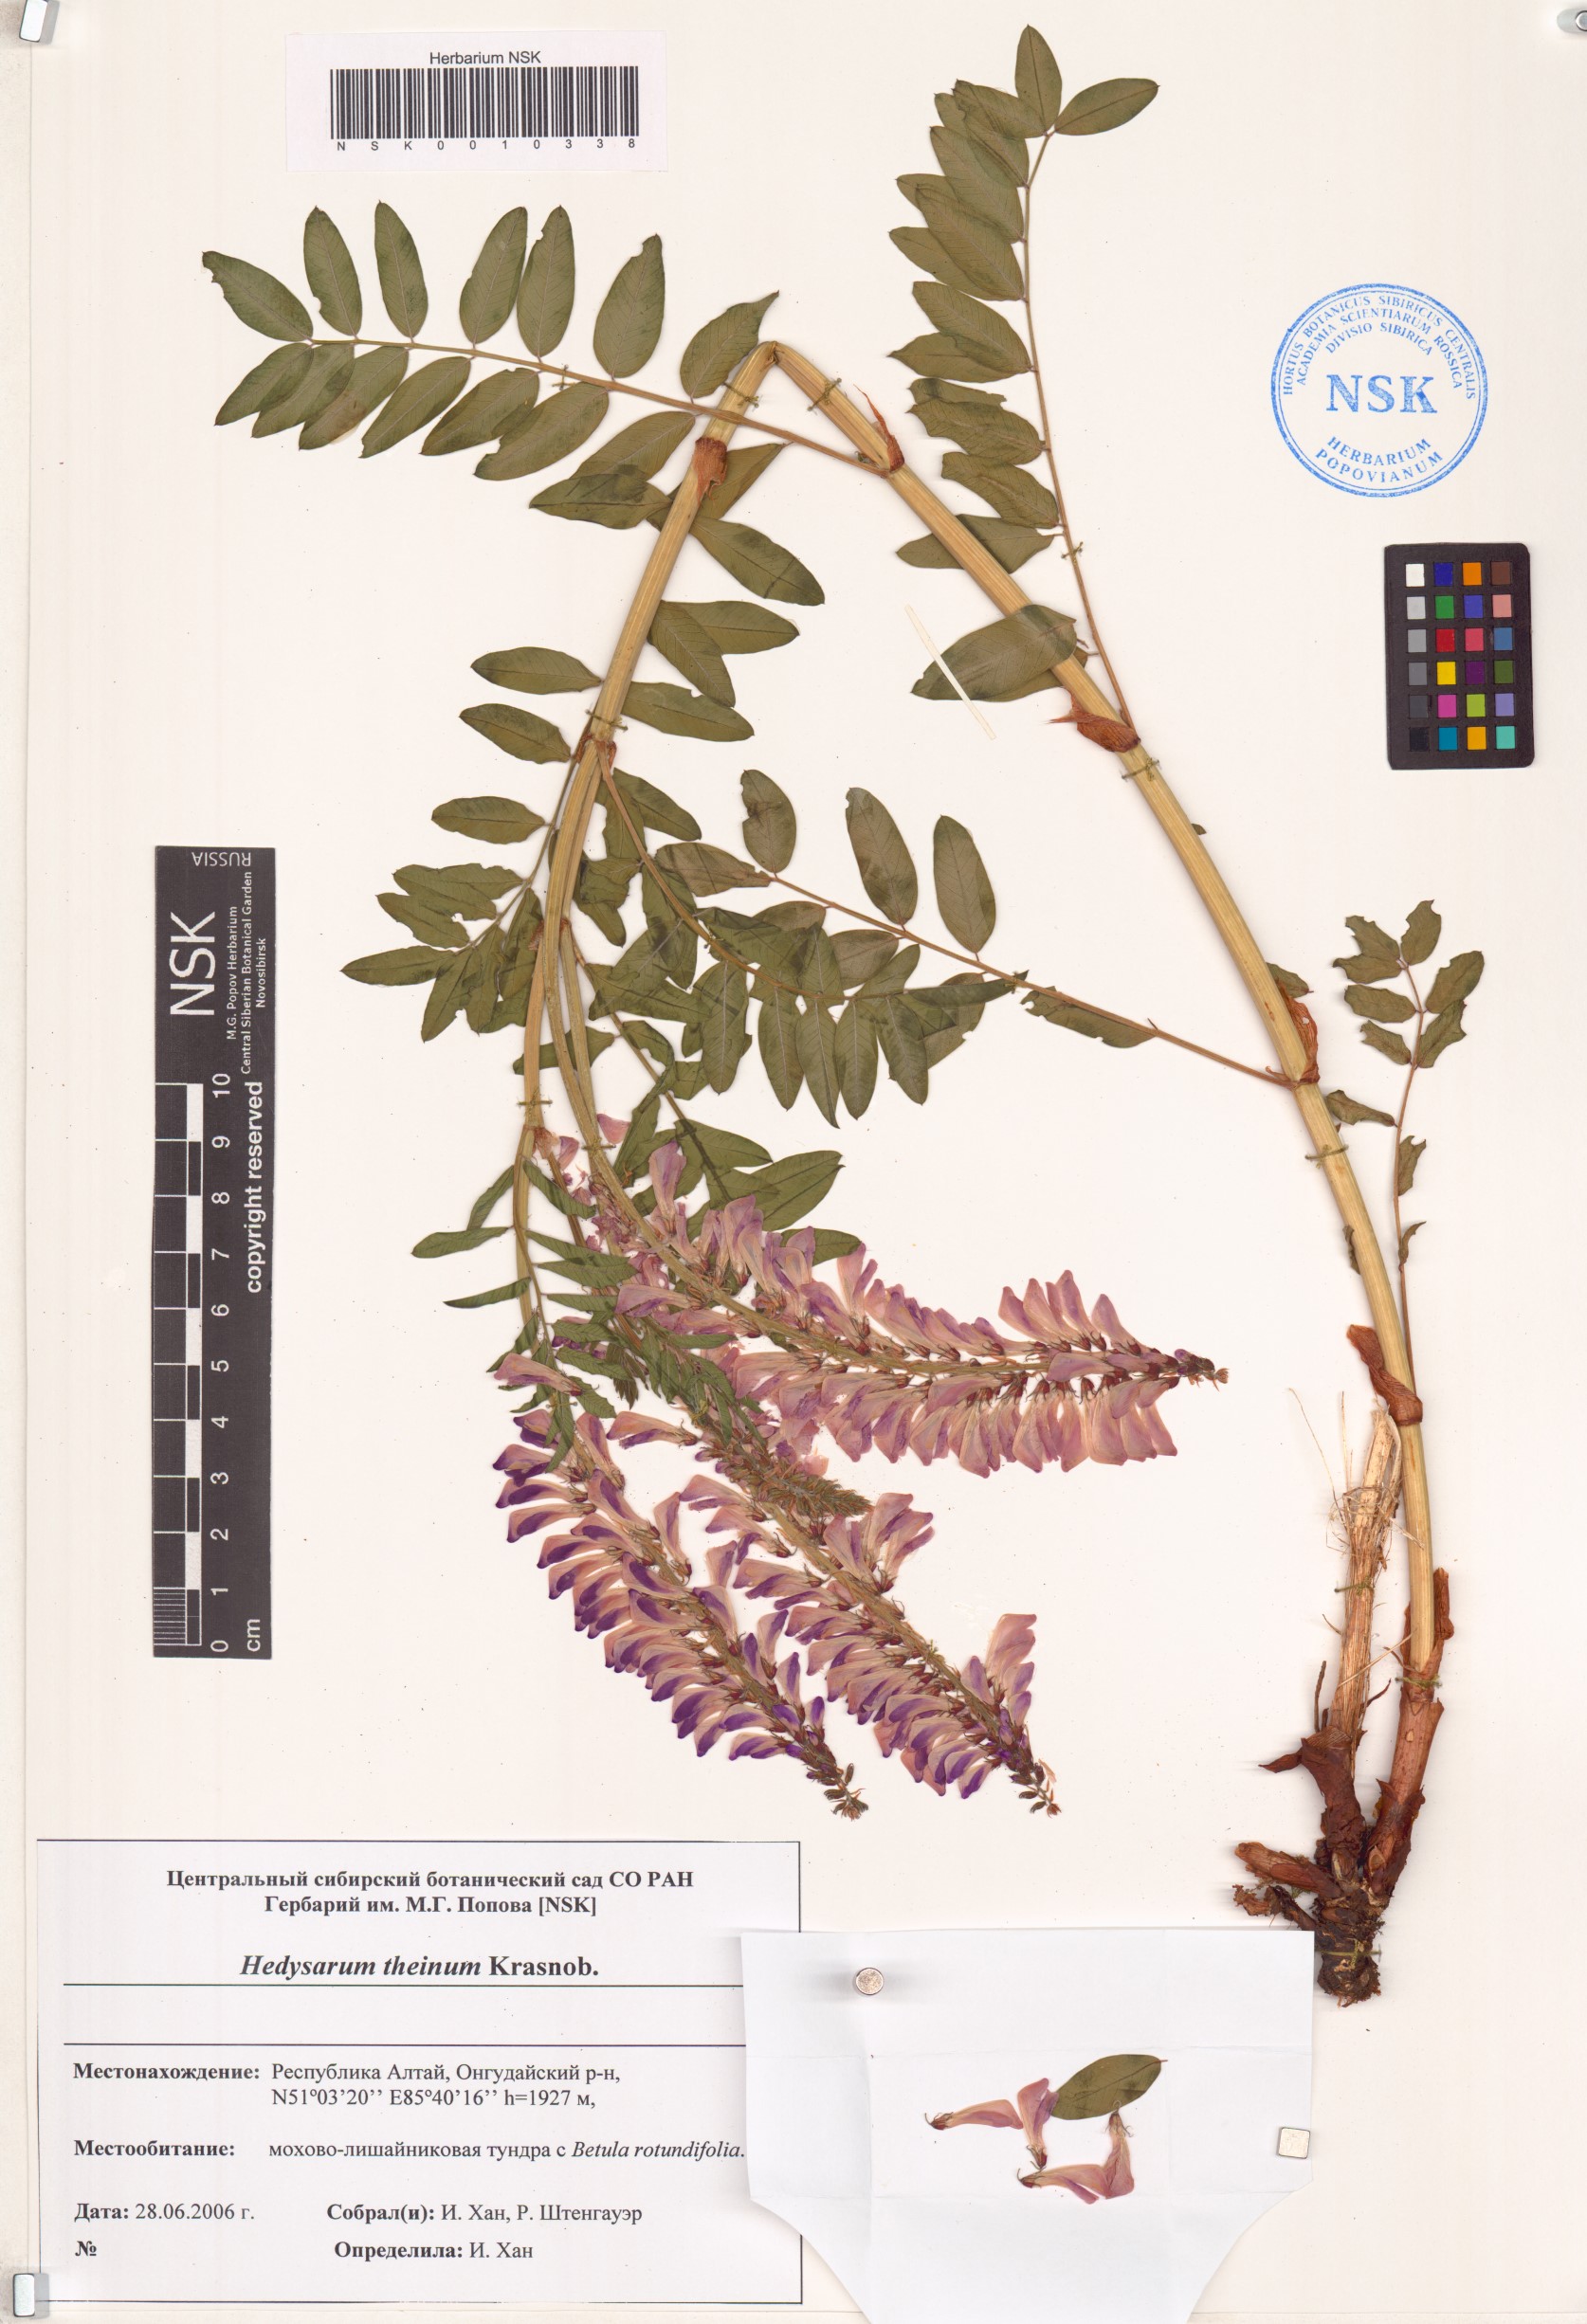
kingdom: Plantae
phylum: Tracheophyta
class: Magnoliopsida
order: Fabales
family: Fabaceae
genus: Hedysarum
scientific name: Hedysarum theinum
